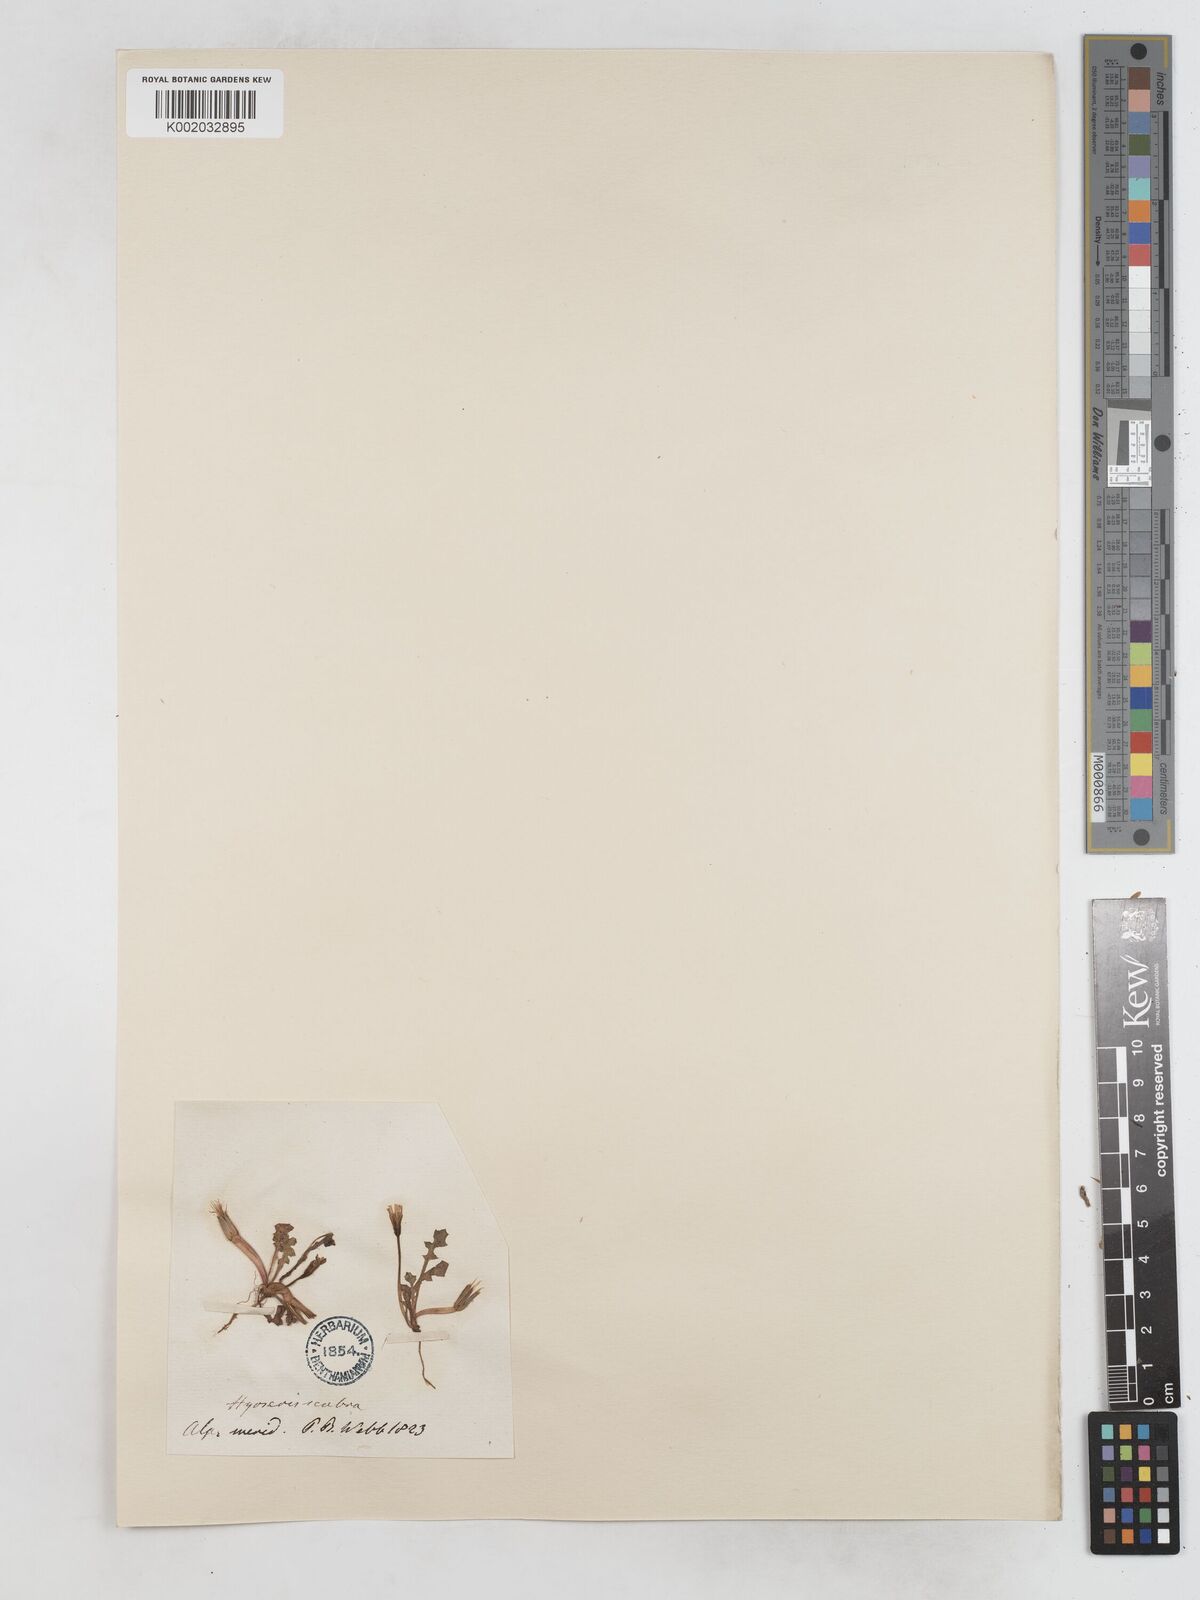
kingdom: Plantae
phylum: Tracheophyta
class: Magnoliopsida
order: Asterales
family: Asteraceae
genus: Hyoseris
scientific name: Hyoseris scabra
